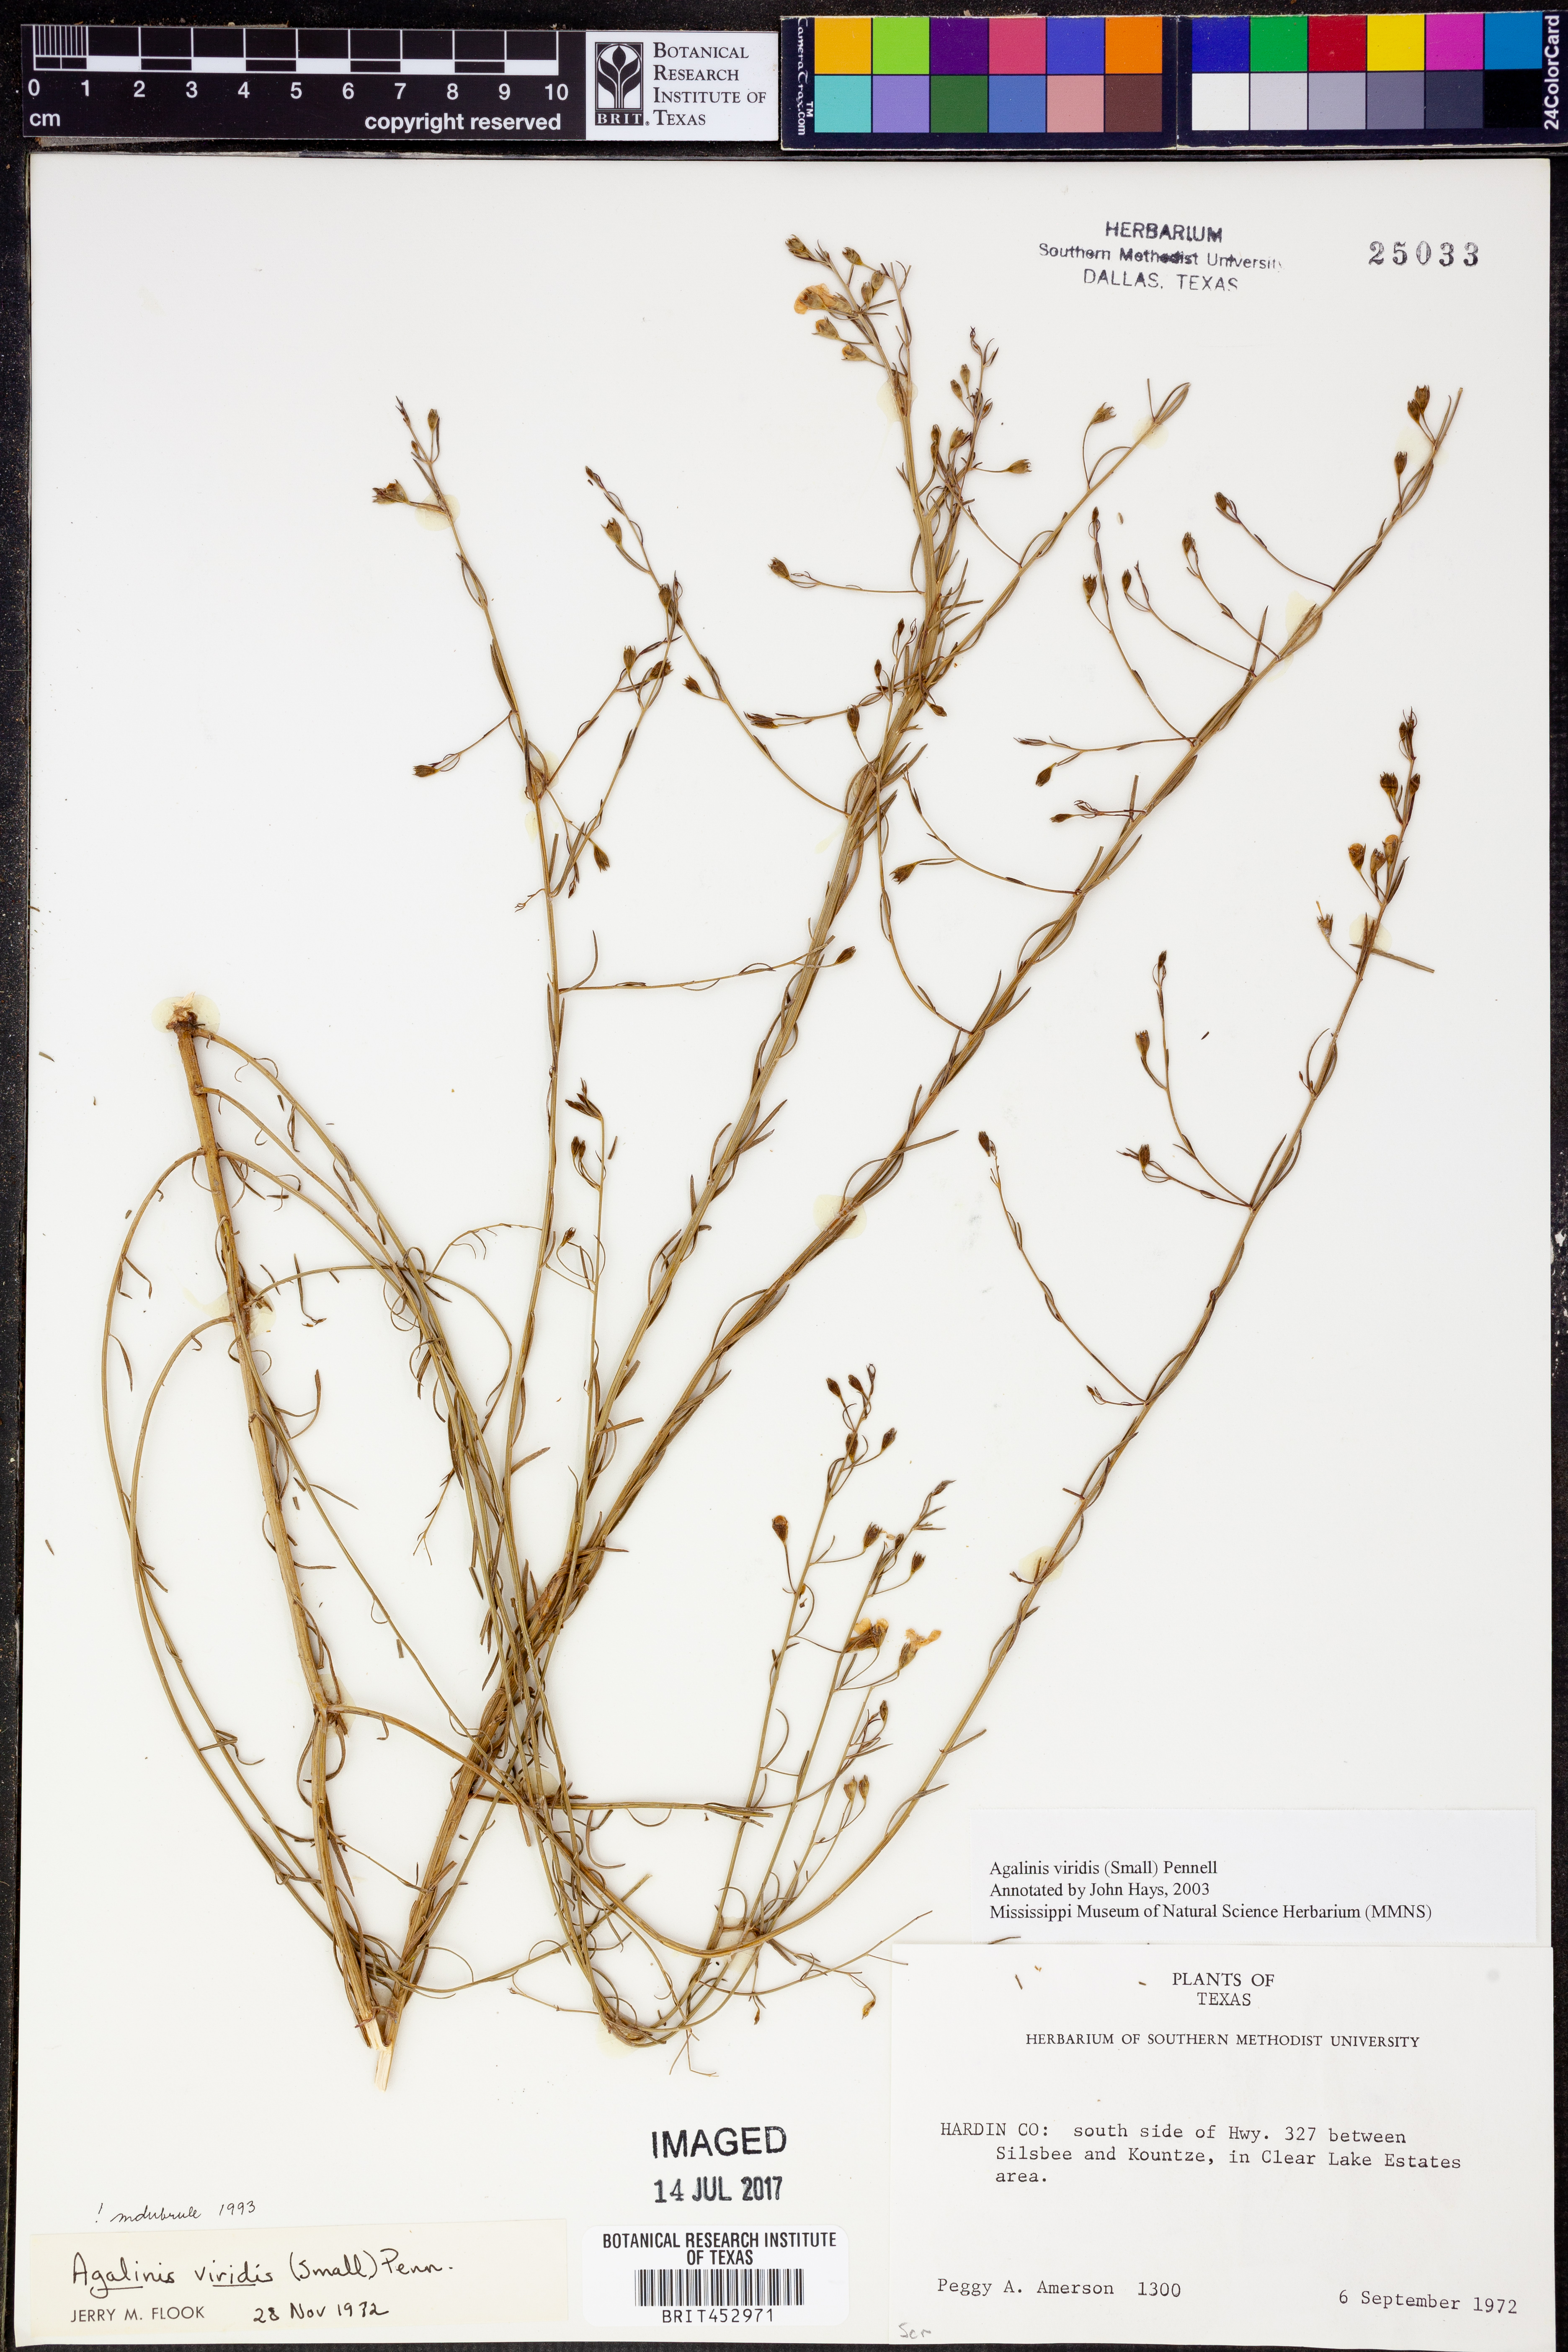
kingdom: Plantae
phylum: Tracheophyta
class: Magnoliopsida
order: Lamiales
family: Orobanchaceae
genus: Agalinis
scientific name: Agalinis viridis
